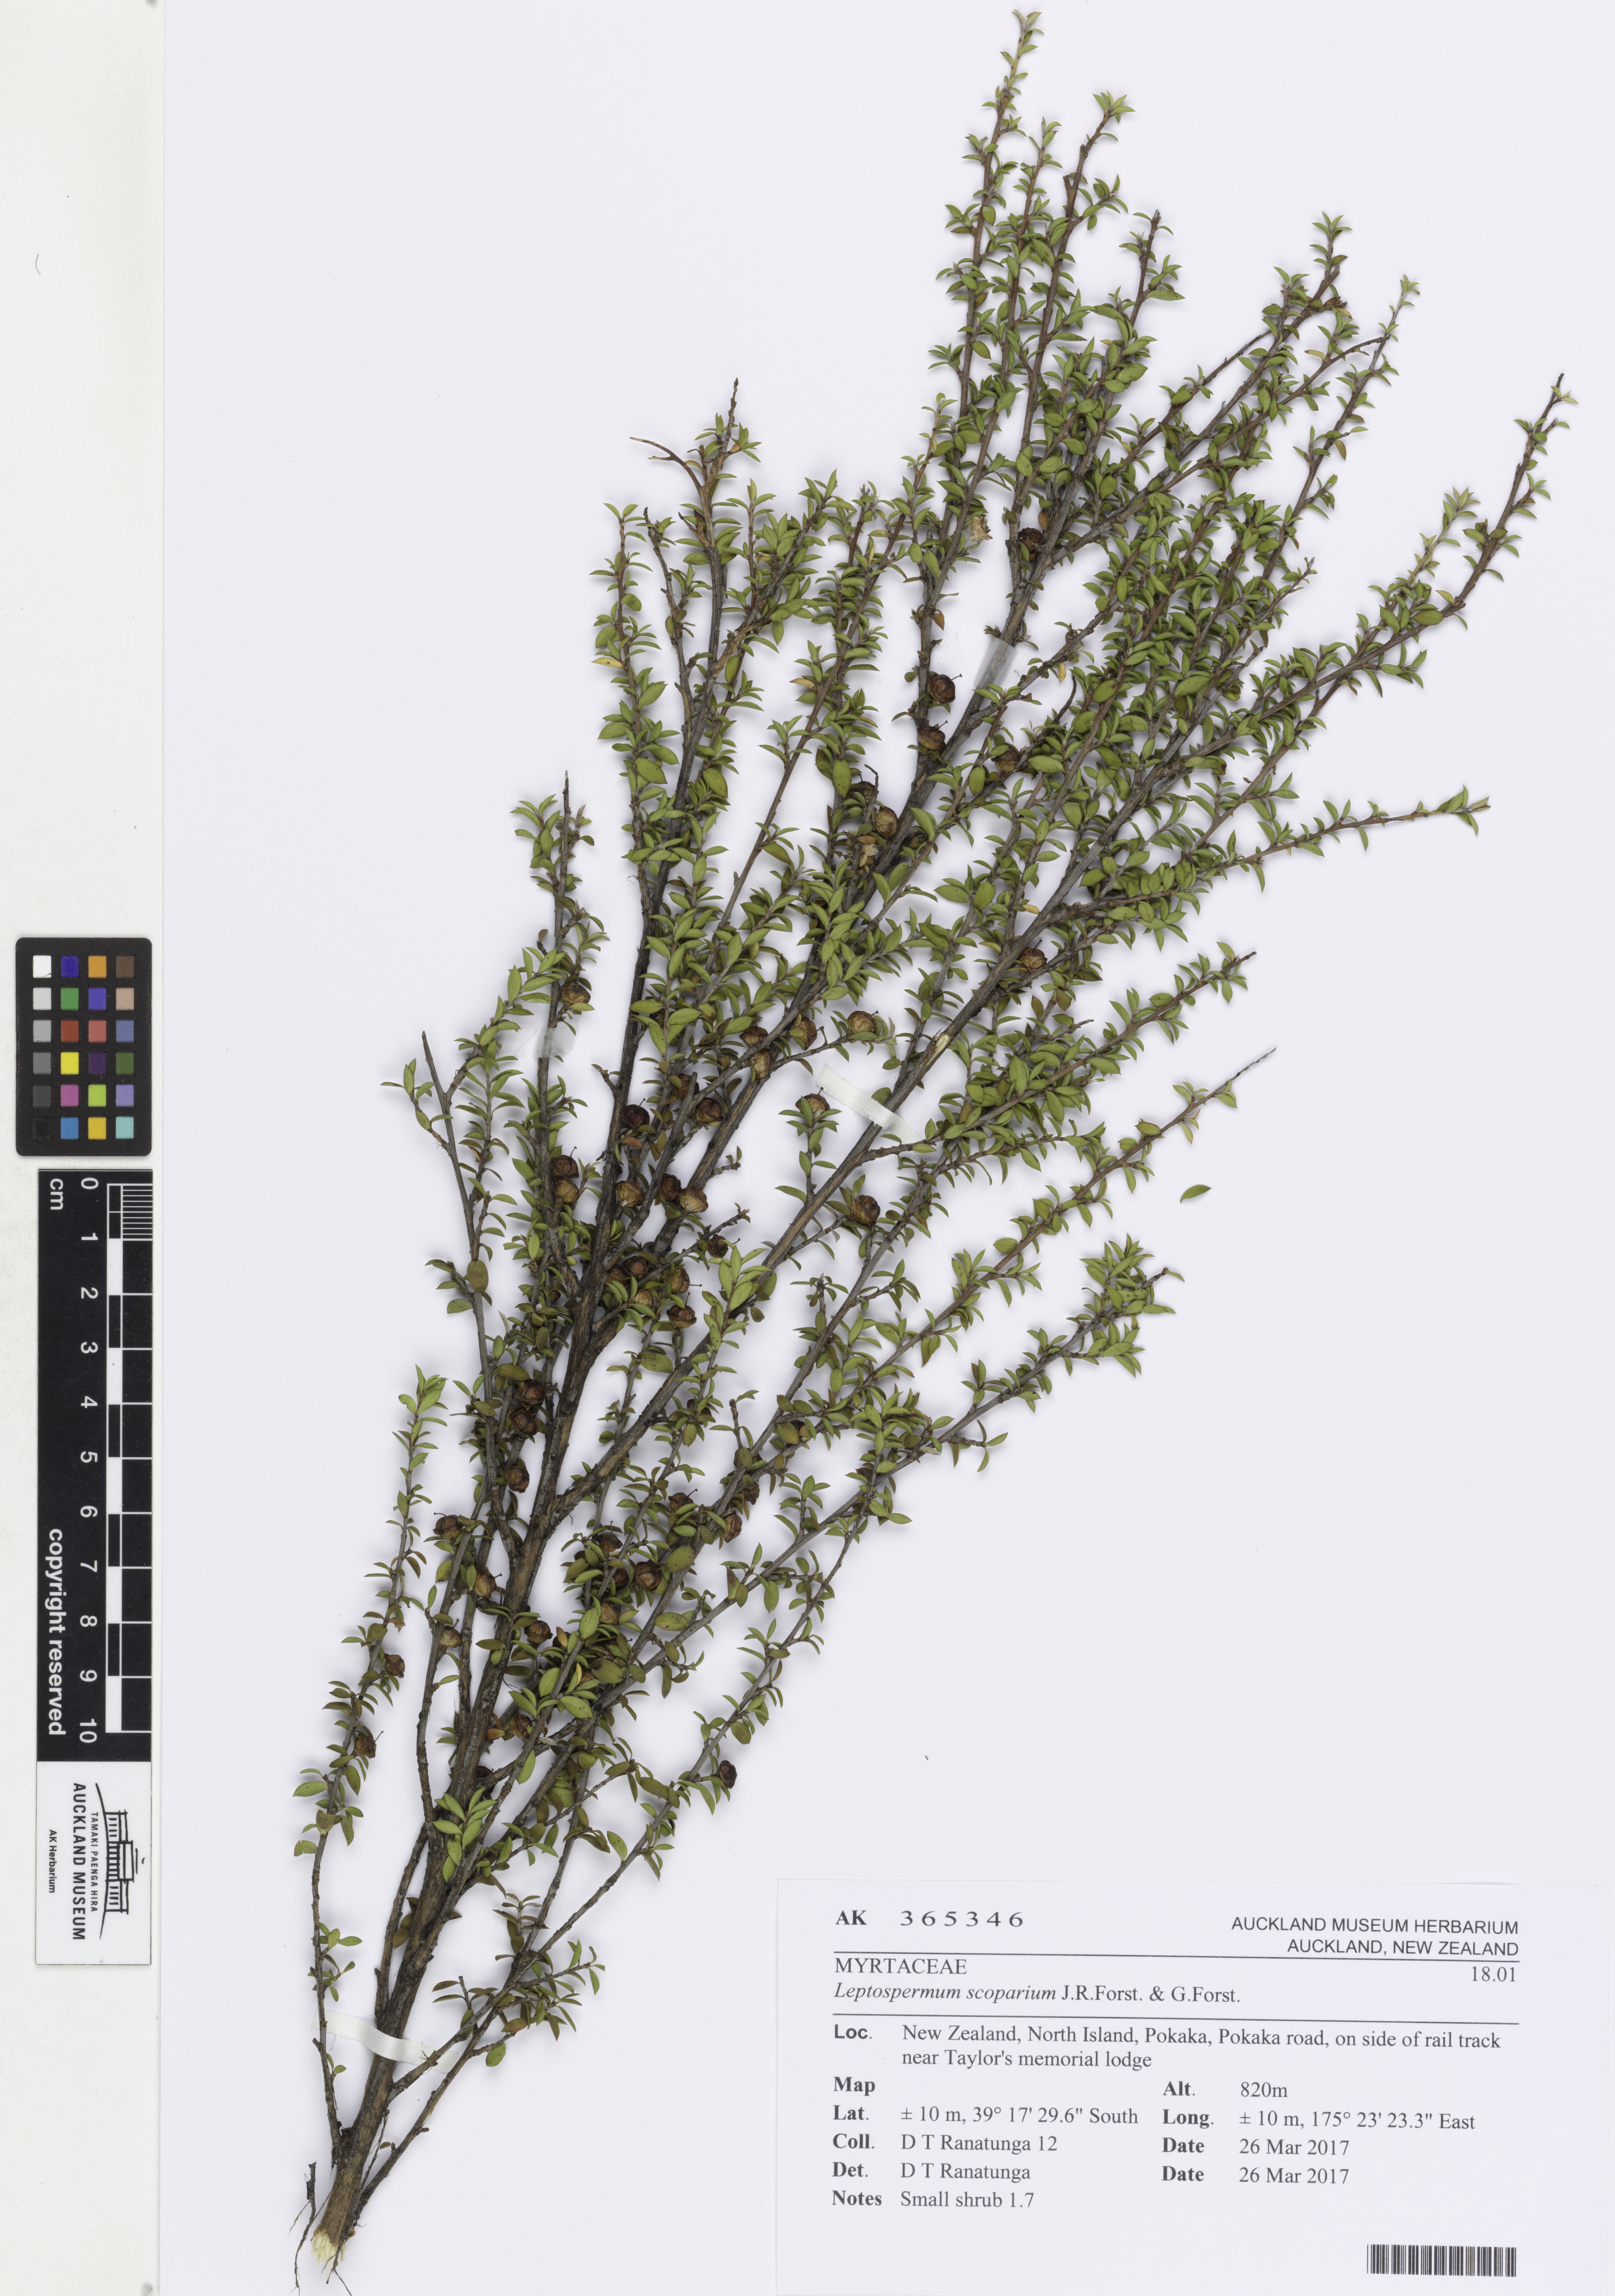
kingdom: Plantae
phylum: Tracheophyta
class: Magnoliopsida
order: Myrtales
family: Myrtaceae
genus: Leptospermum
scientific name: Leptospermum scoparium
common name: Broom tea-tree
